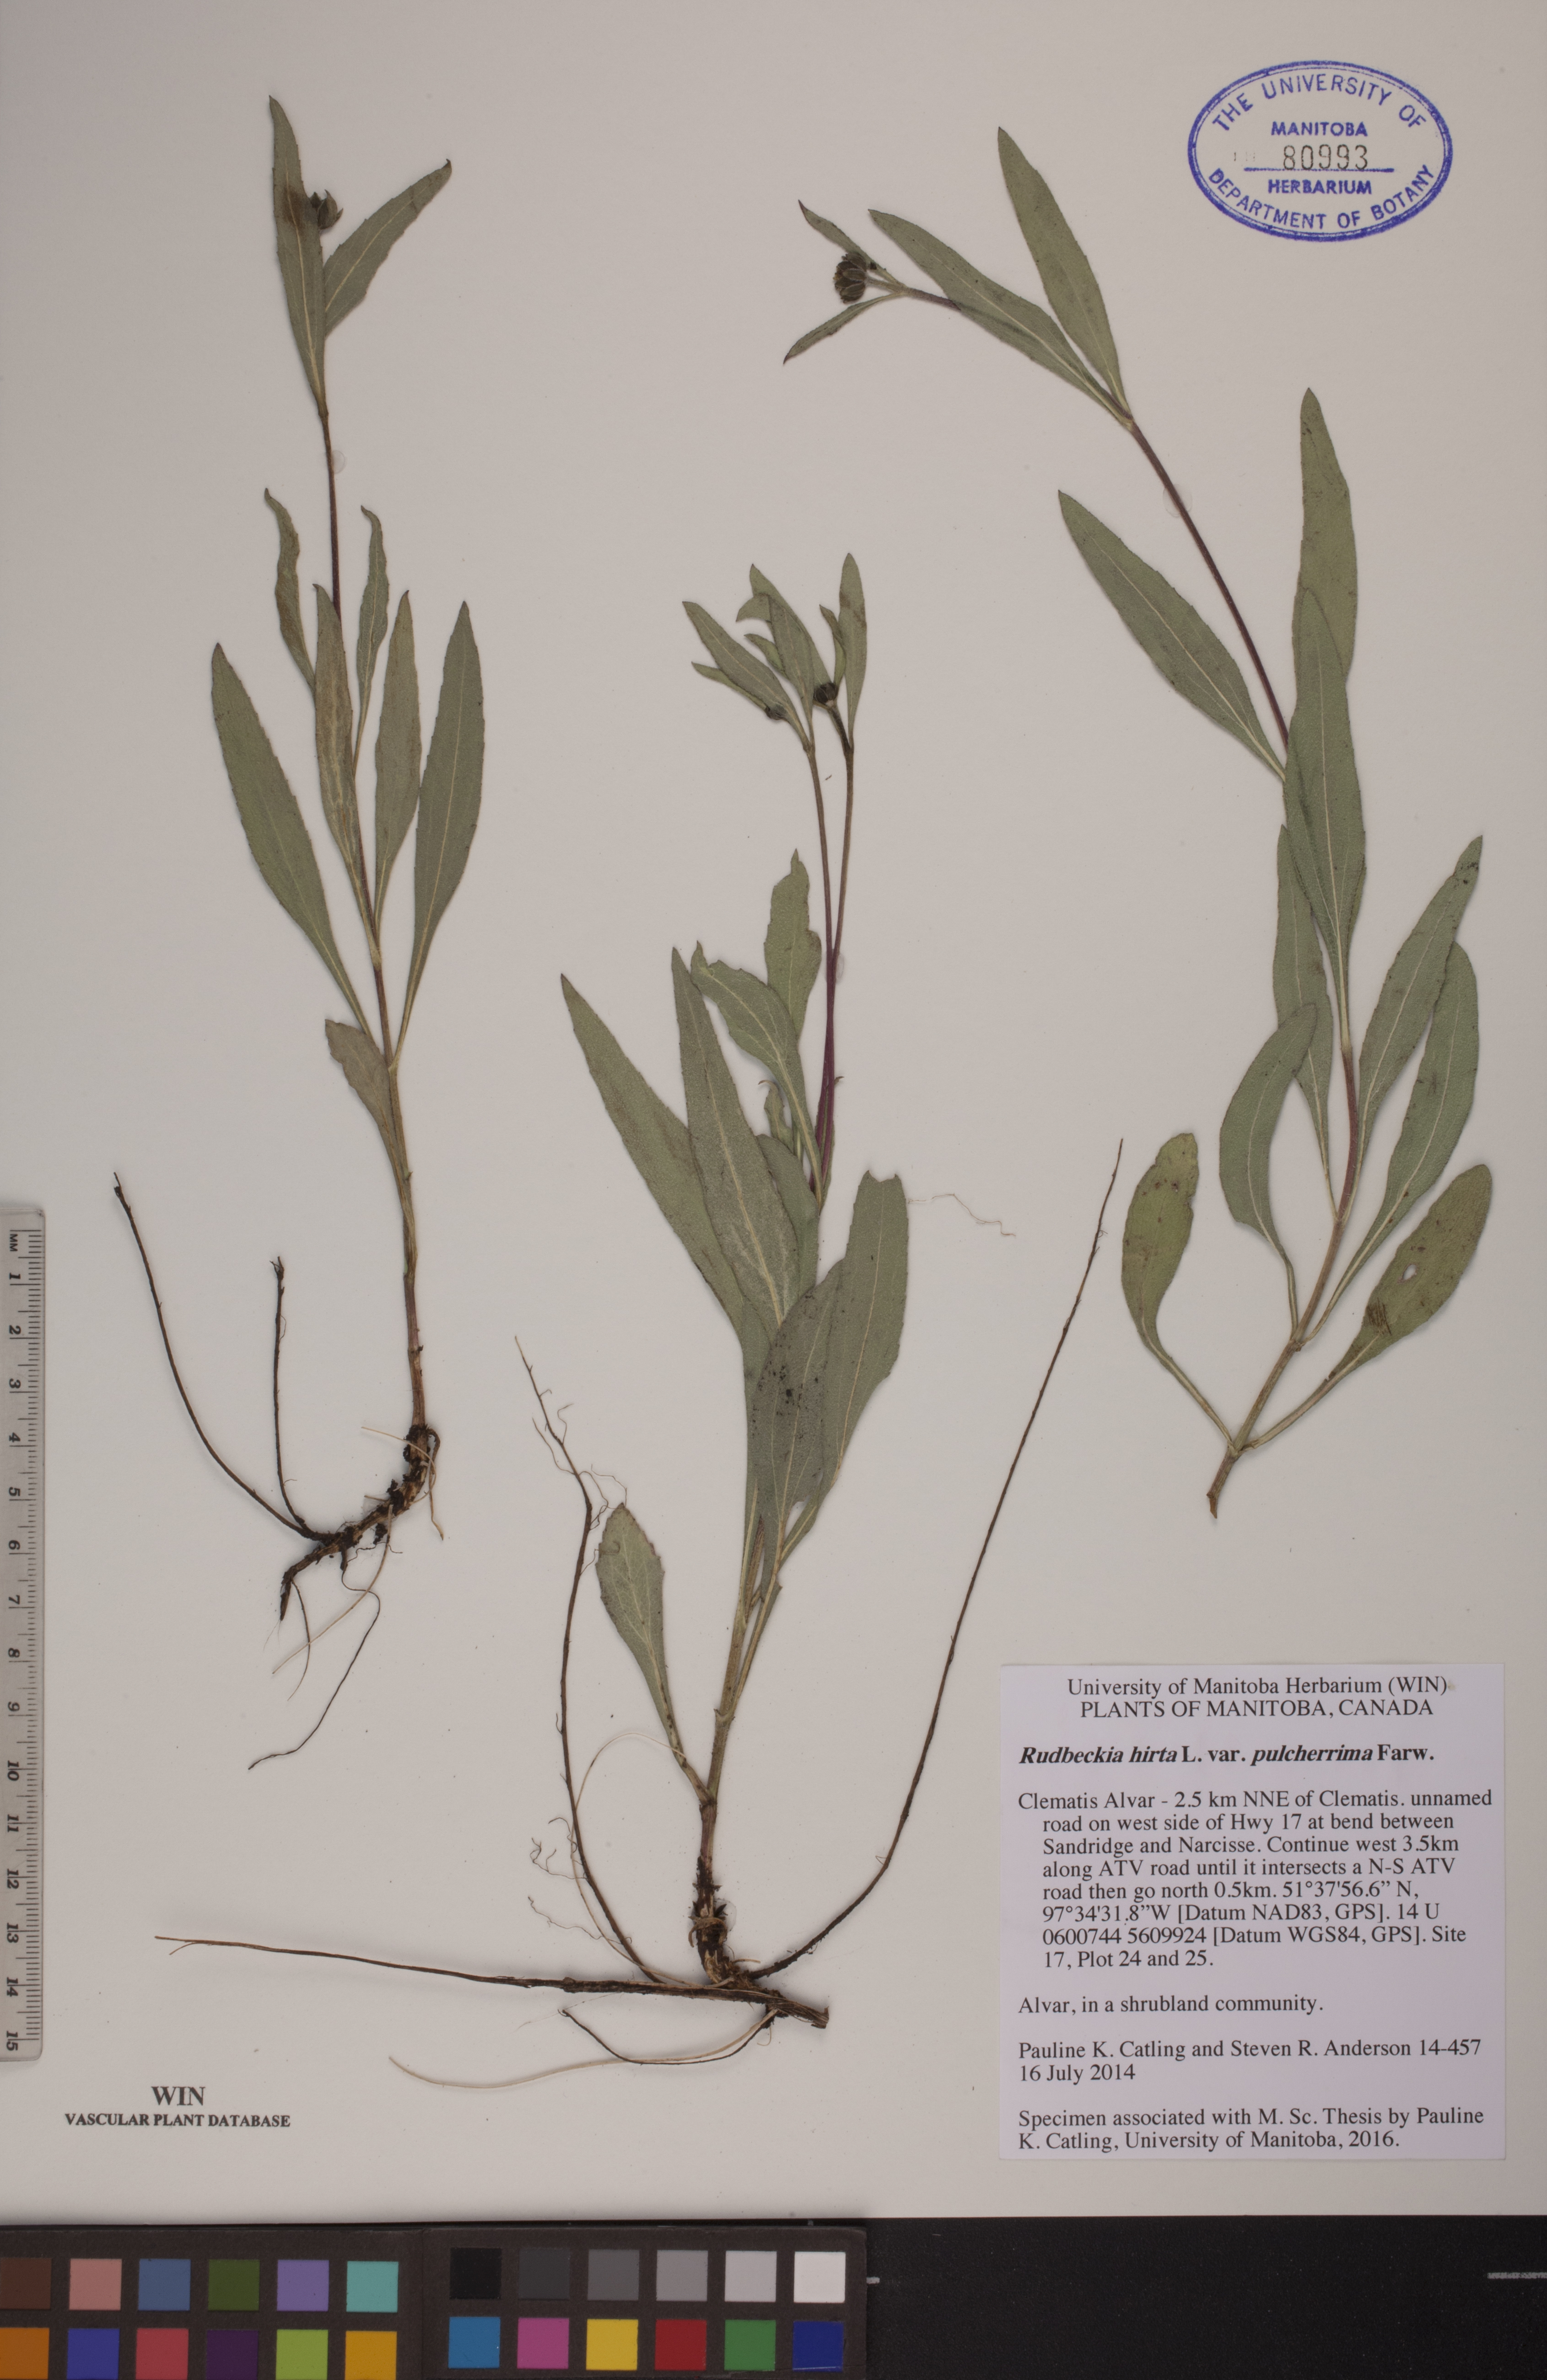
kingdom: Plantae
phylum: Tracheophyta
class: Magnoliopsida
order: Asterales
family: Asteraceae
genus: Rudbeckia
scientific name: Rudbeckia hirta
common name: Black-eyed-susan
